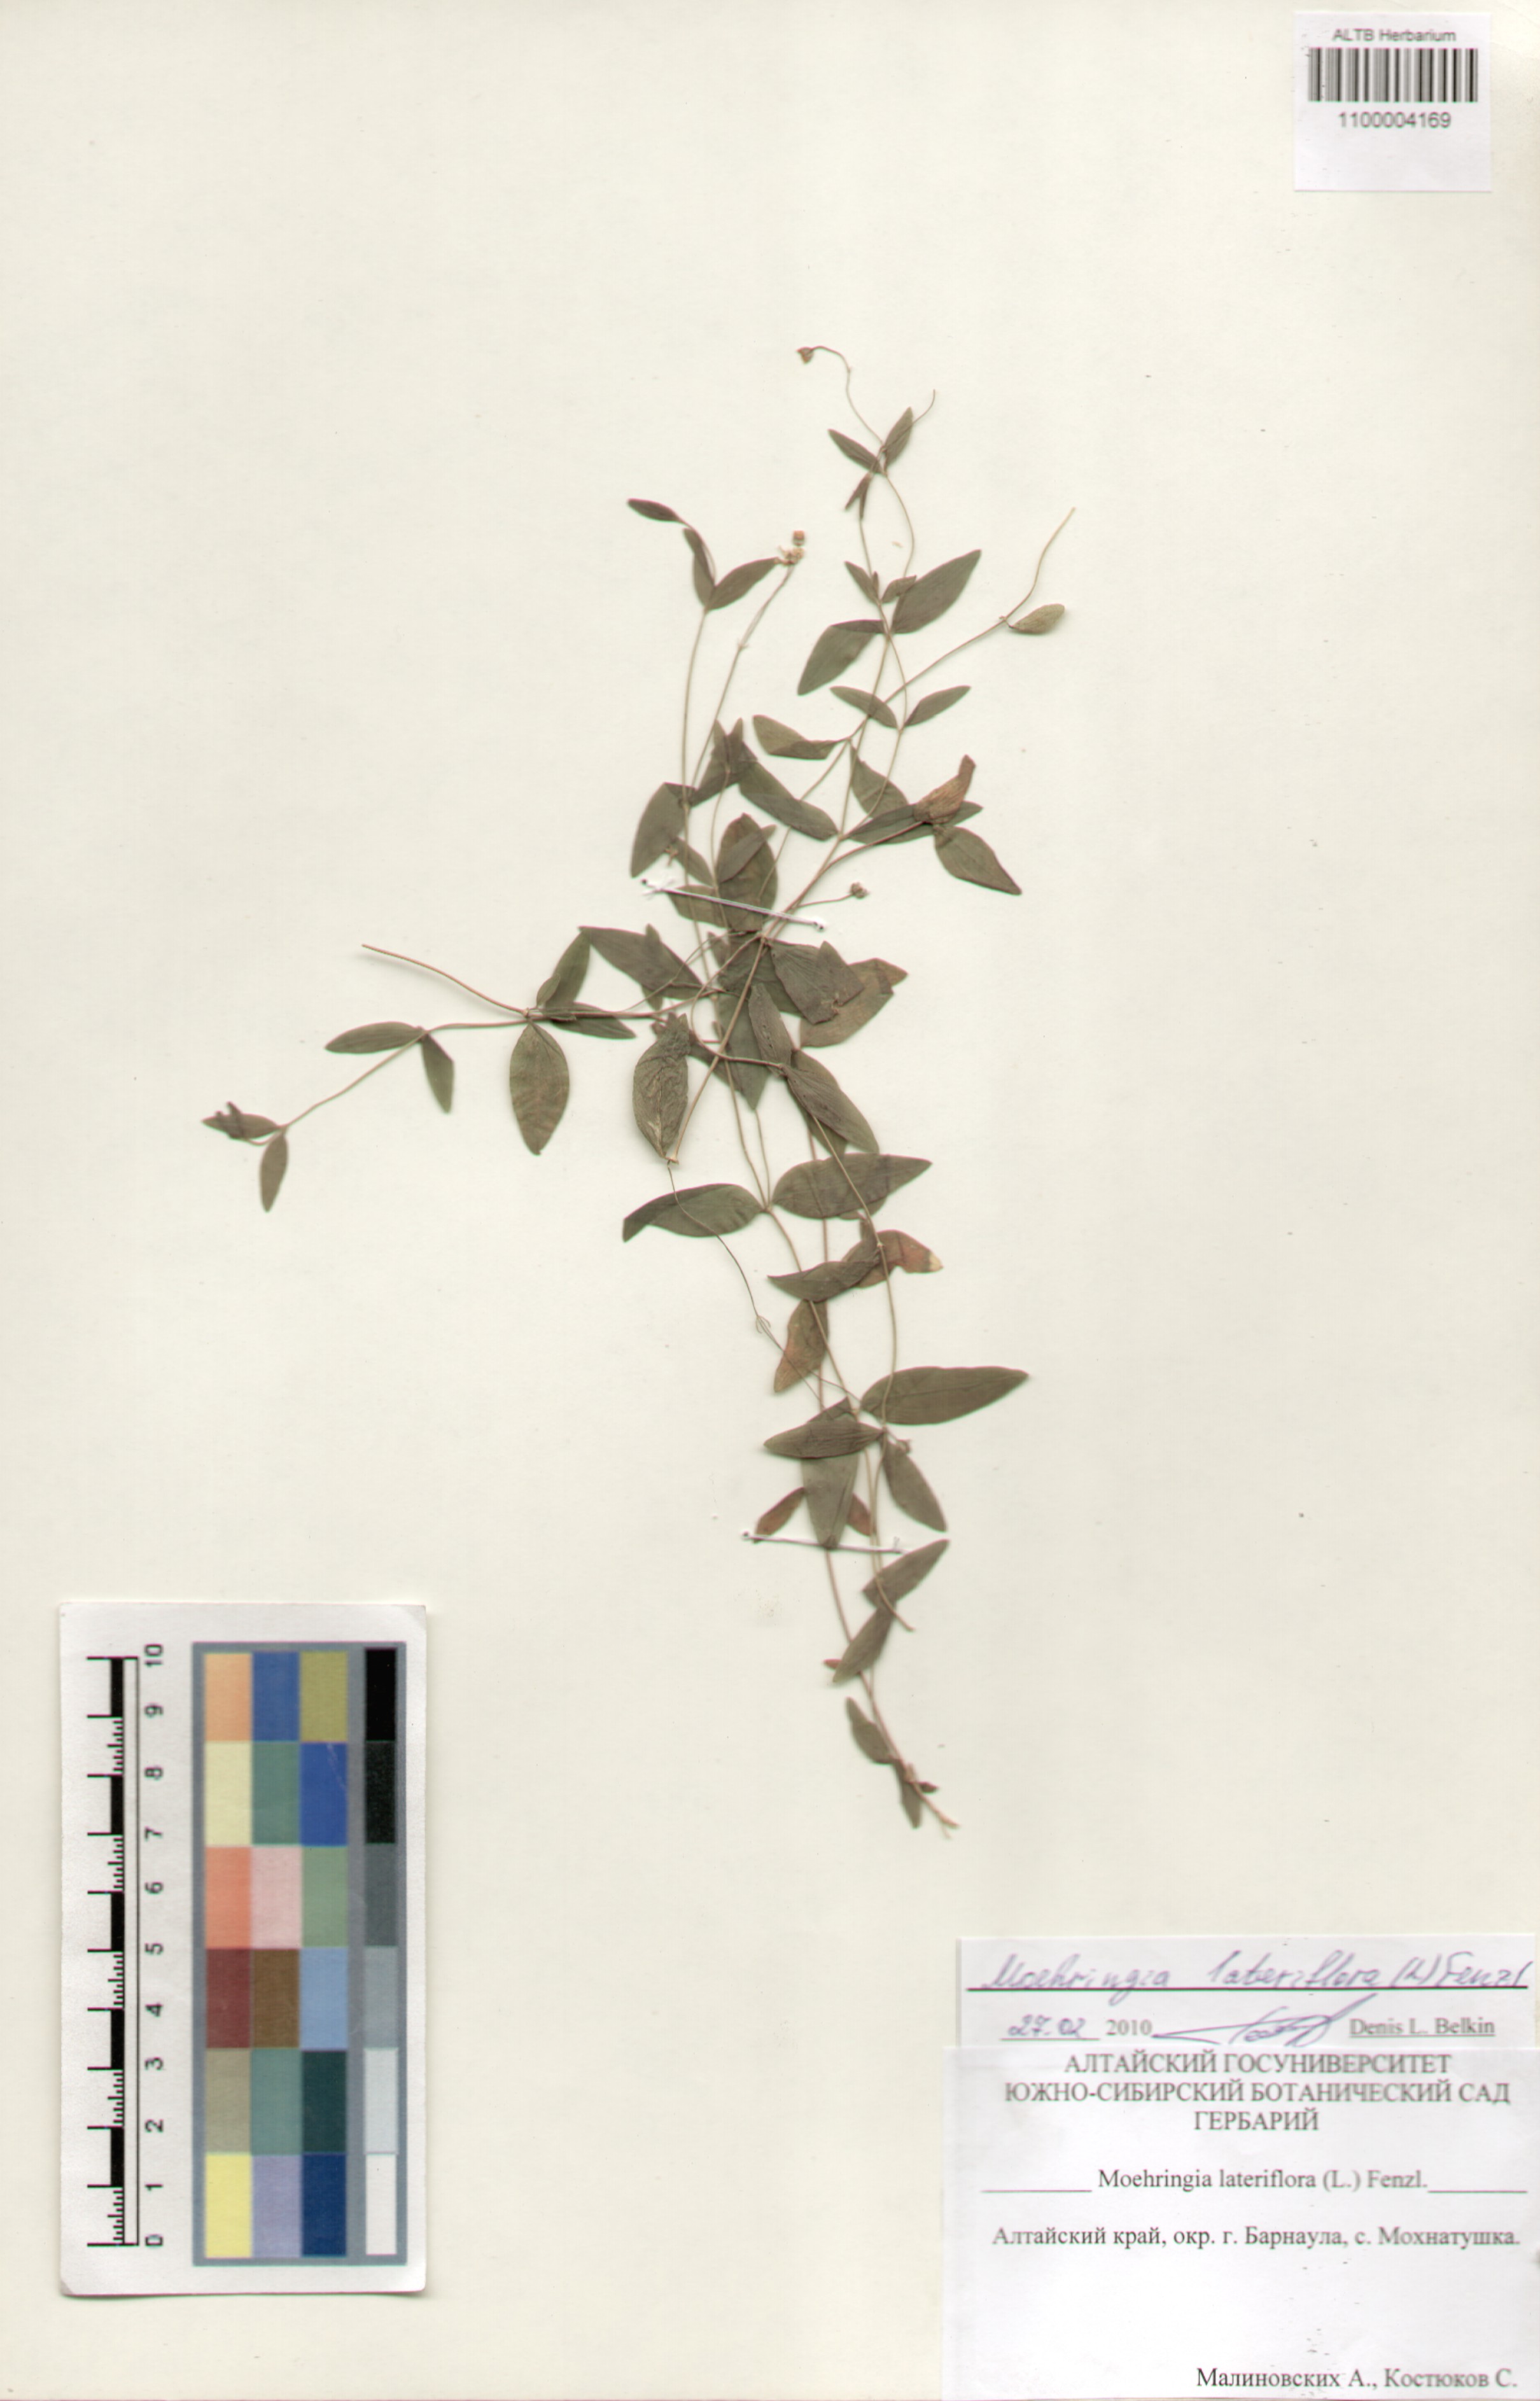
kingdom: Plantae
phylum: Tracheophyta
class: Magnoliopsida
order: Caryophyllales
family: Caryophyllaceae
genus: Moehringia
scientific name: Moehringia lateriflora
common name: Blunt-leaved sandwort
